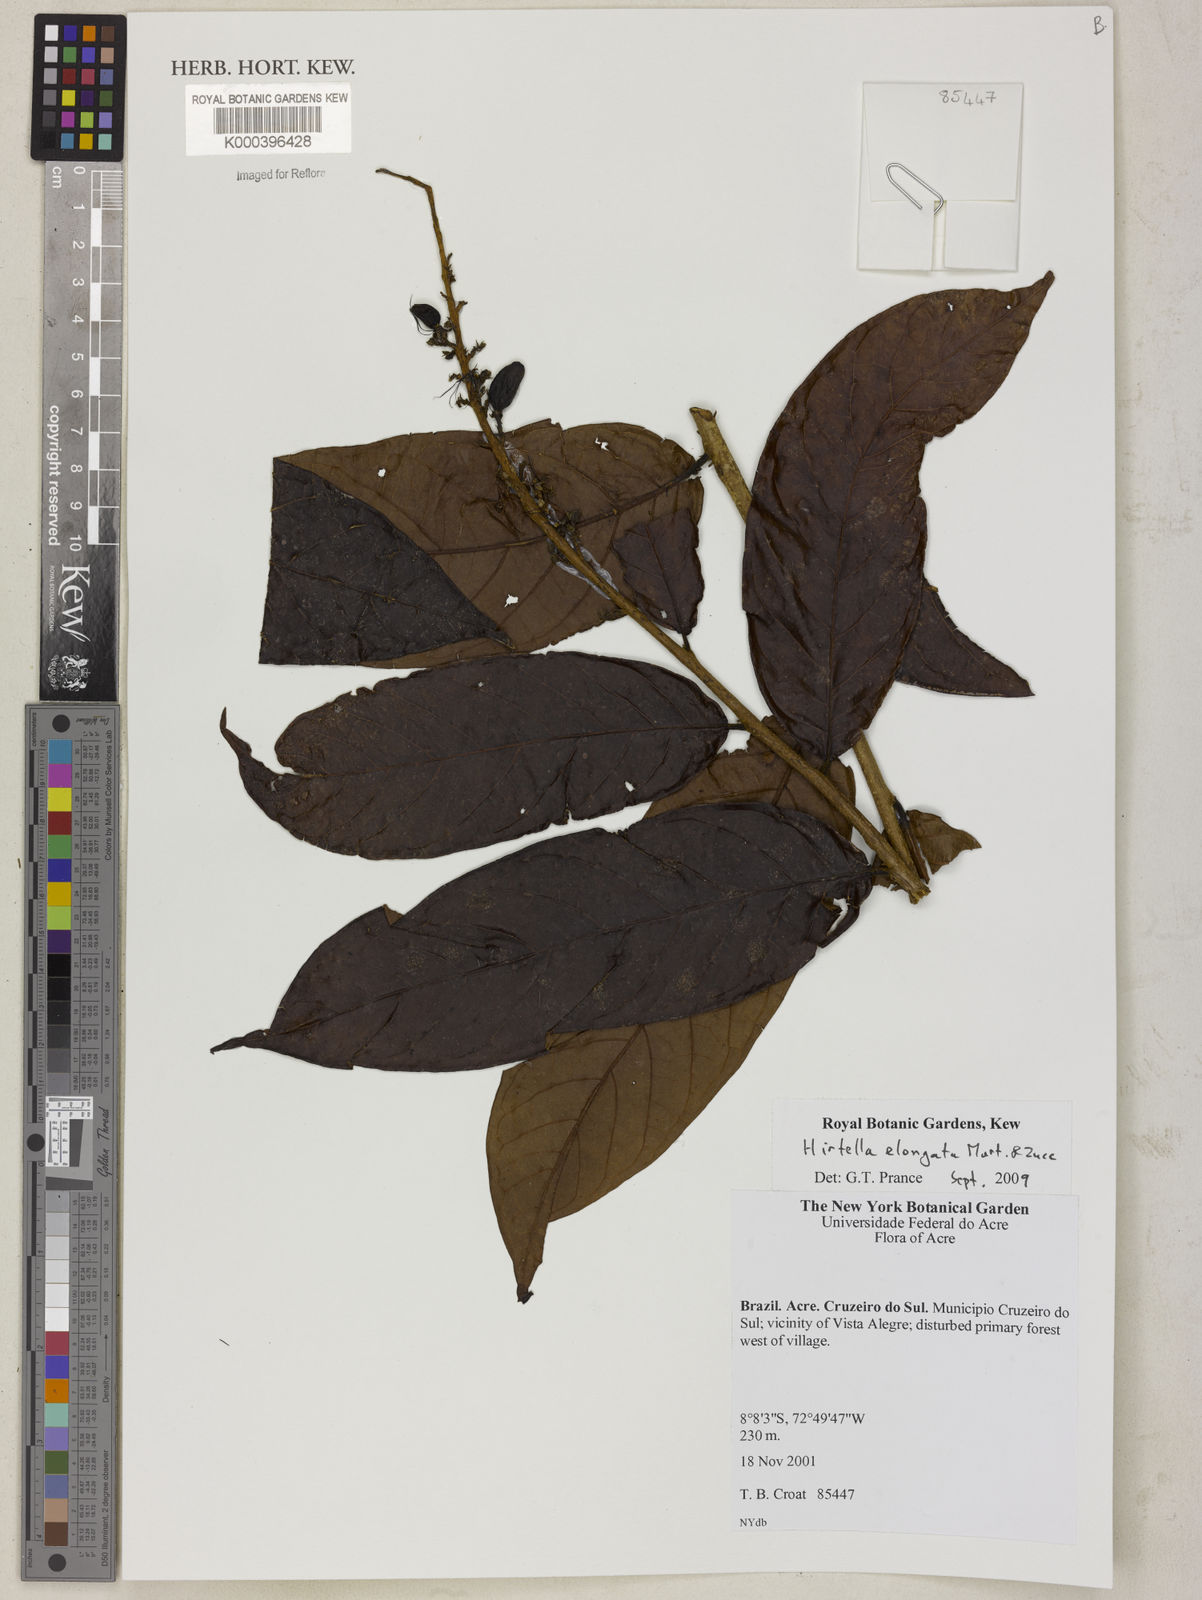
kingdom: Plantae
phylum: Tracheophyta
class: Magnoliopsida
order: Malpighiales
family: Chrysobalanaceae
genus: Hirtella
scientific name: Hirtella elongata
